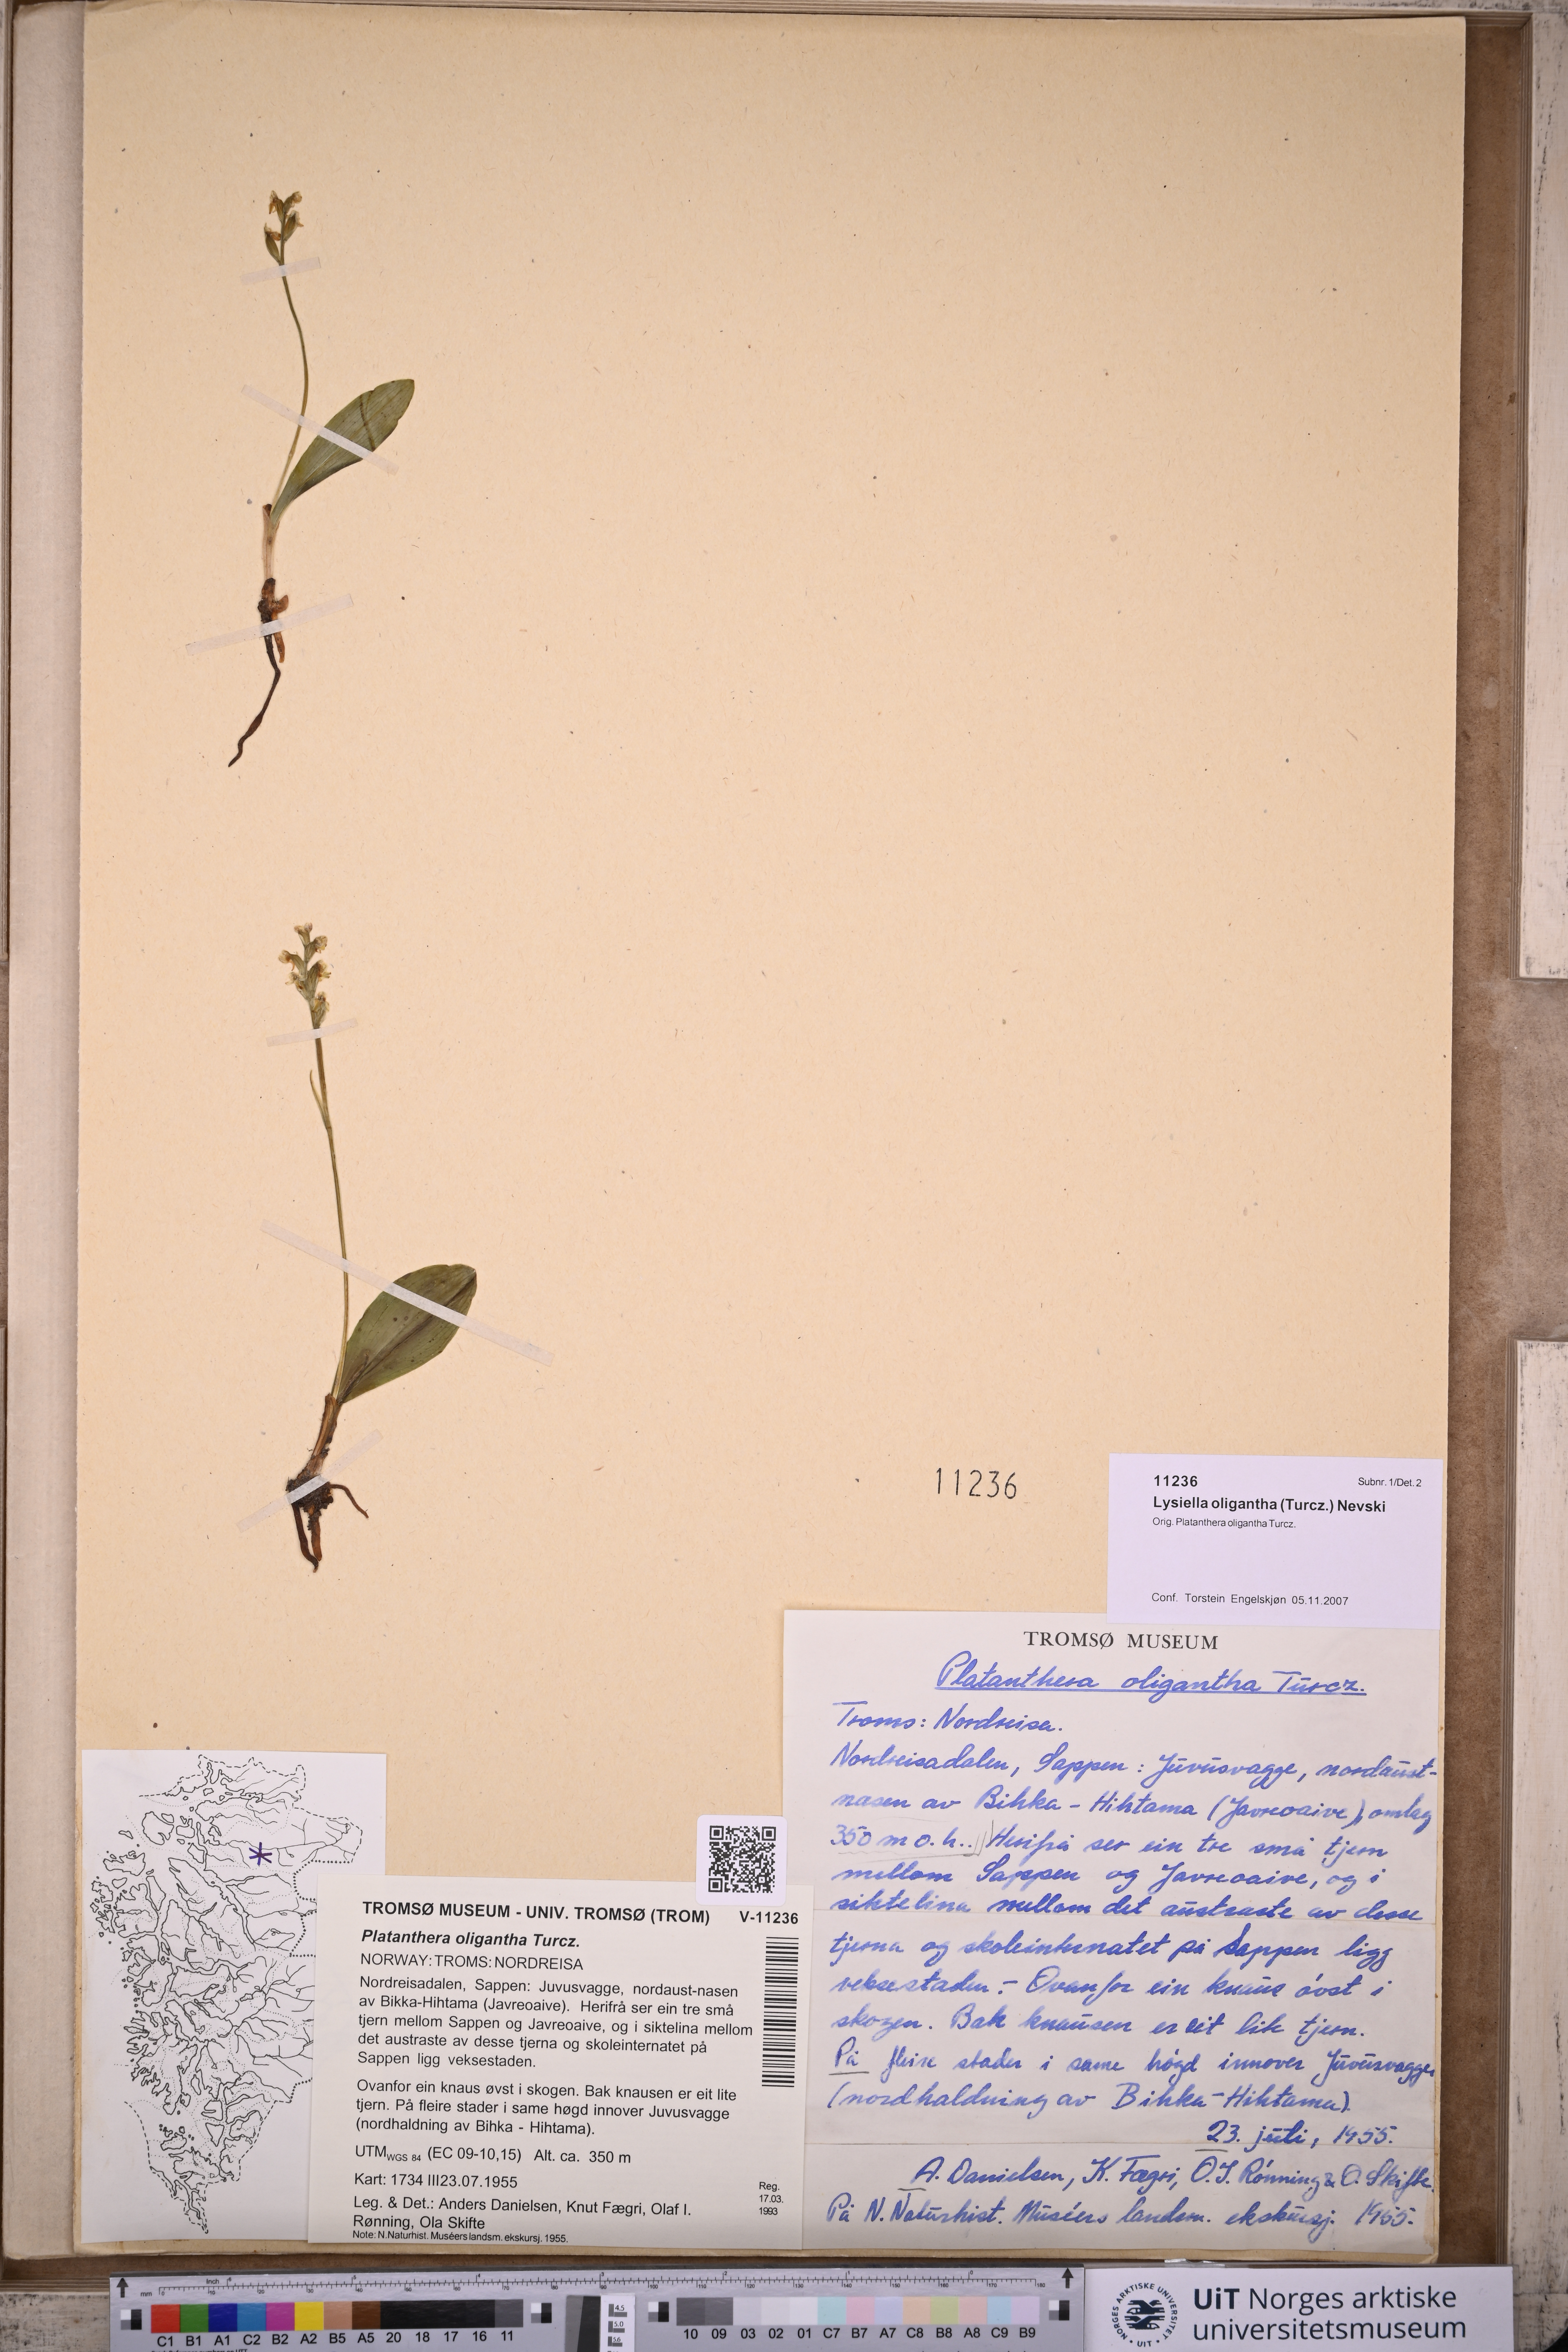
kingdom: Plantae
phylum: Tracheophyta
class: Liliopsida
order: Asparagales
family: Orchidaceae
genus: Platanthera
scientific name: Platanthera oligantha
